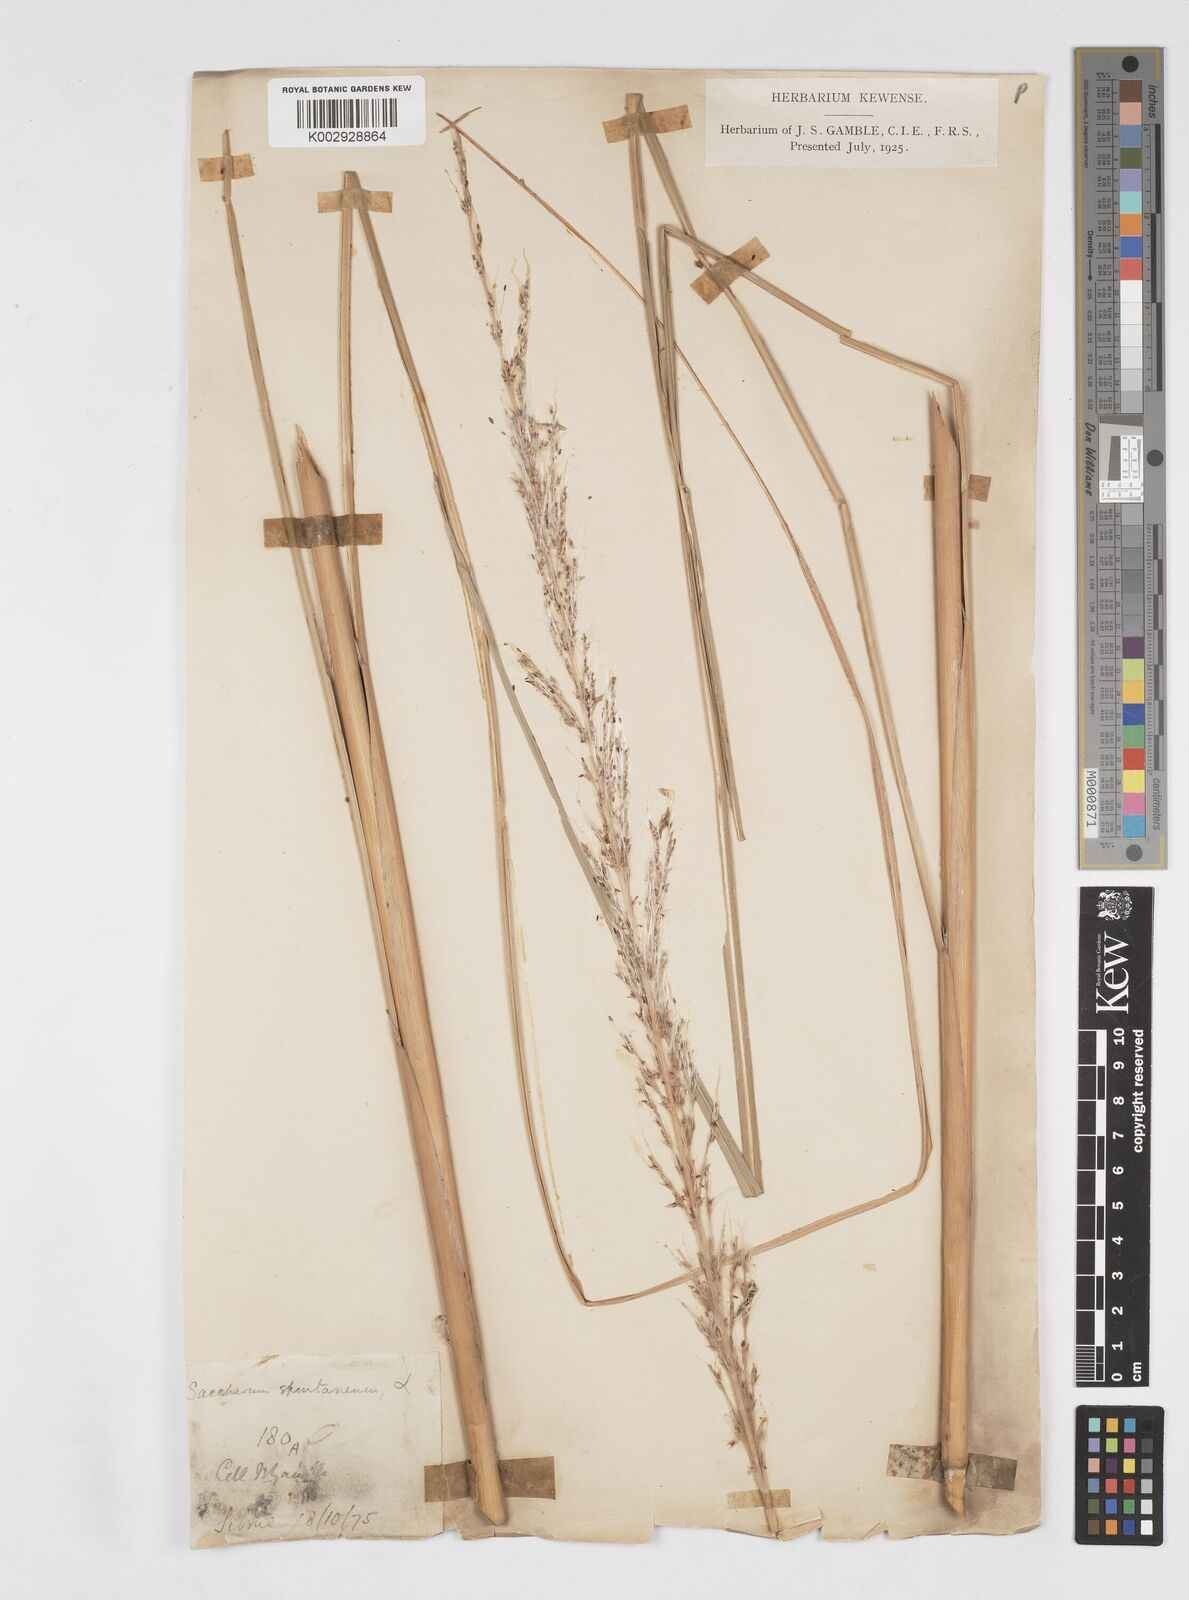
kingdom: Plantae
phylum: Tracheophyta
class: Liliopsida
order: Poales
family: Poaceae
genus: Saccharum
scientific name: Saccharum spontaneum
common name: Wild sugarcane
